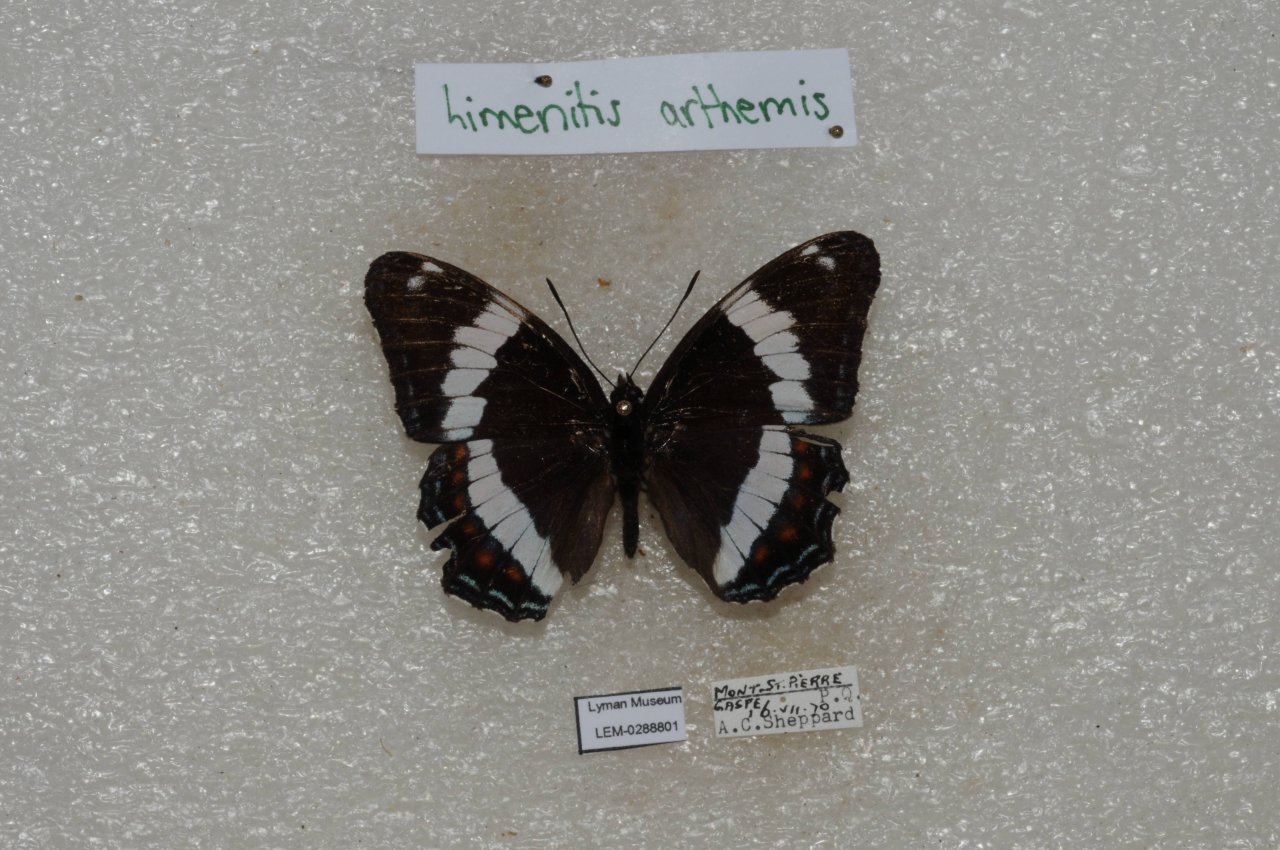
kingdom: Animalia
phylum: Arthropoda
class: Insecta
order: Lepidoptera
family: Nymphalidae
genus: Limenitis
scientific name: Limenitis arthemis
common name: Red-spotted Admiral
